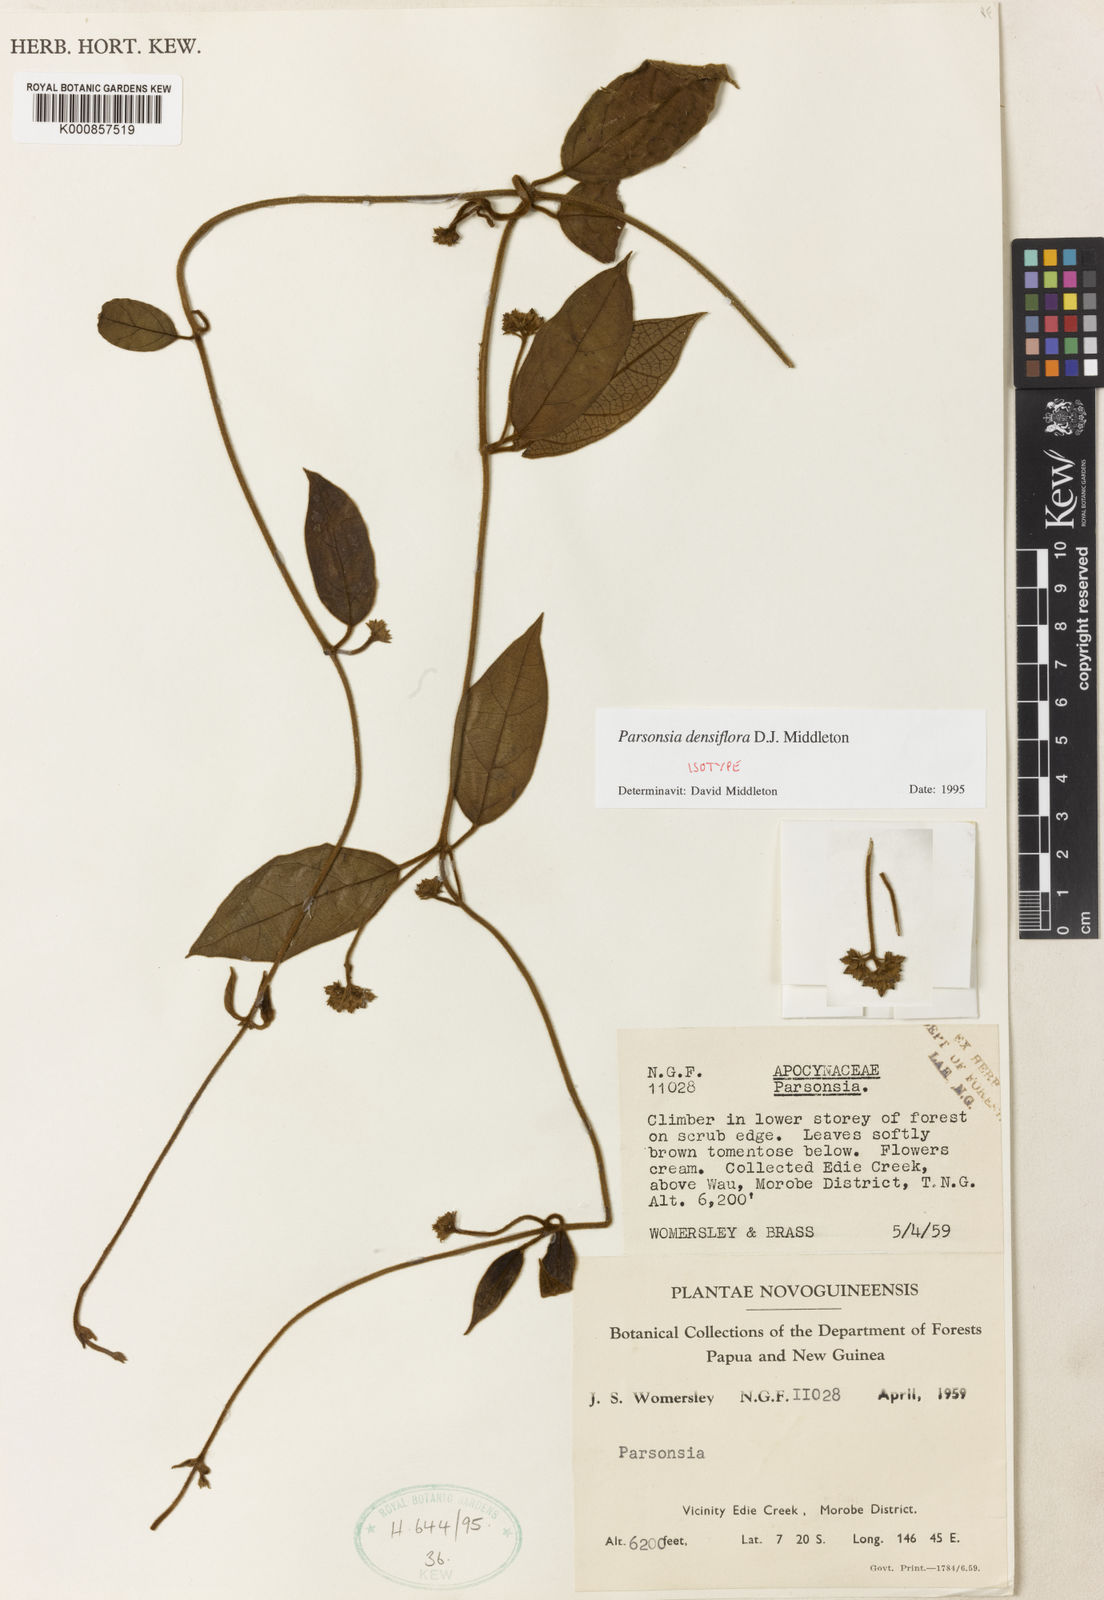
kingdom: Plantae
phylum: Tracheophyta
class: Magnoliopsida
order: Gentianales
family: Apocynaceae
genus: Parsonsia
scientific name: Parsonsia densiflora
